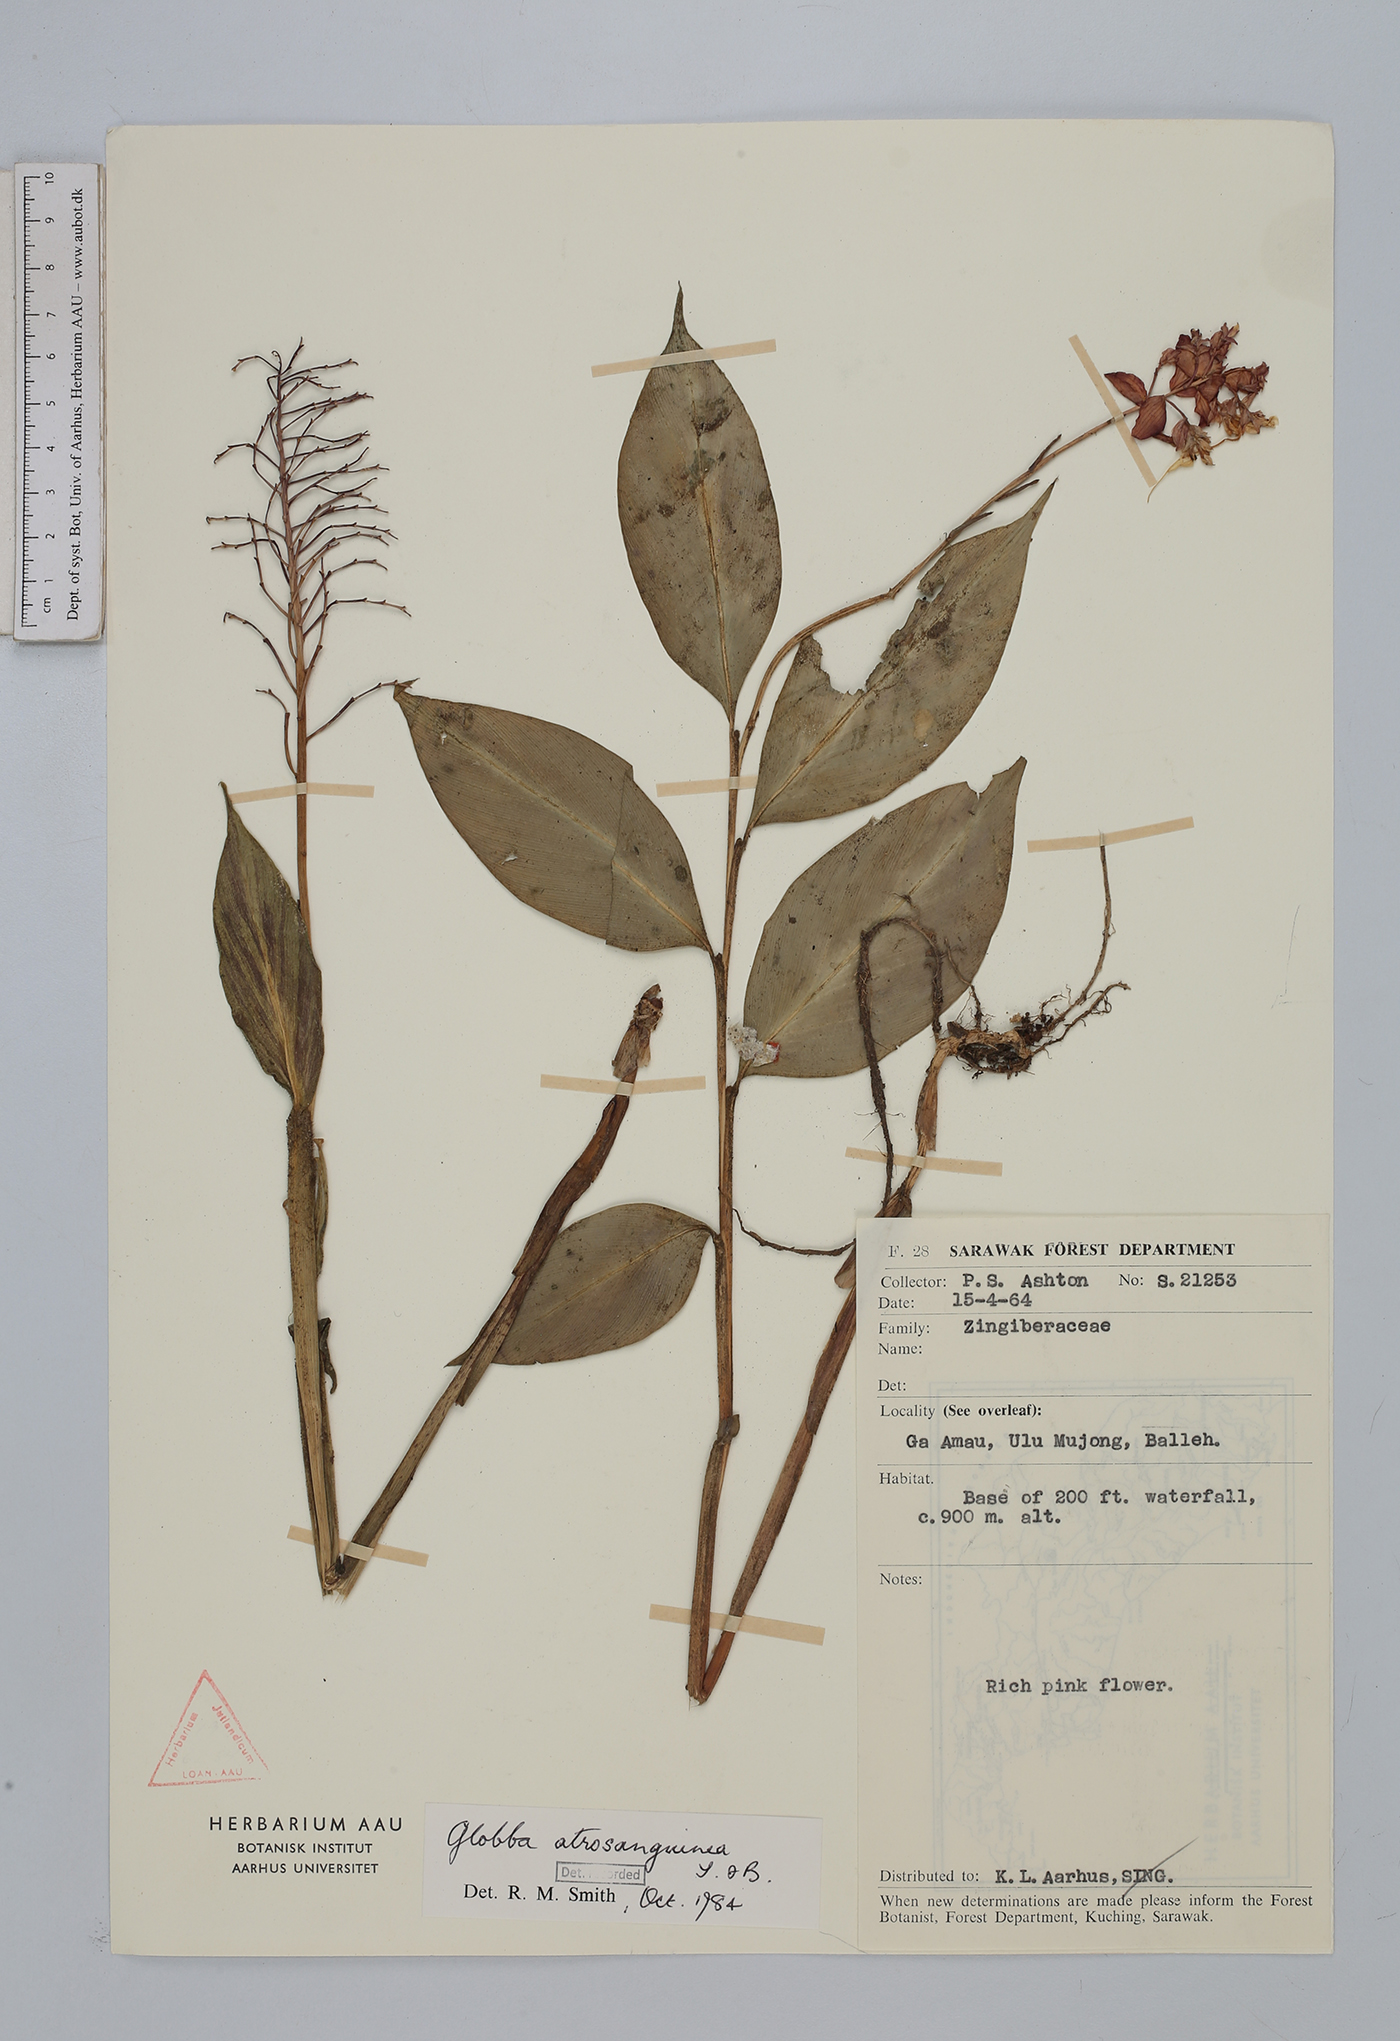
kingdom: Plantae
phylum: Tracheophyta
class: Liliopsida
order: Zingiberales
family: Zingiberaceae
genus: Globba
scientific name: Globba atrosanguinea
